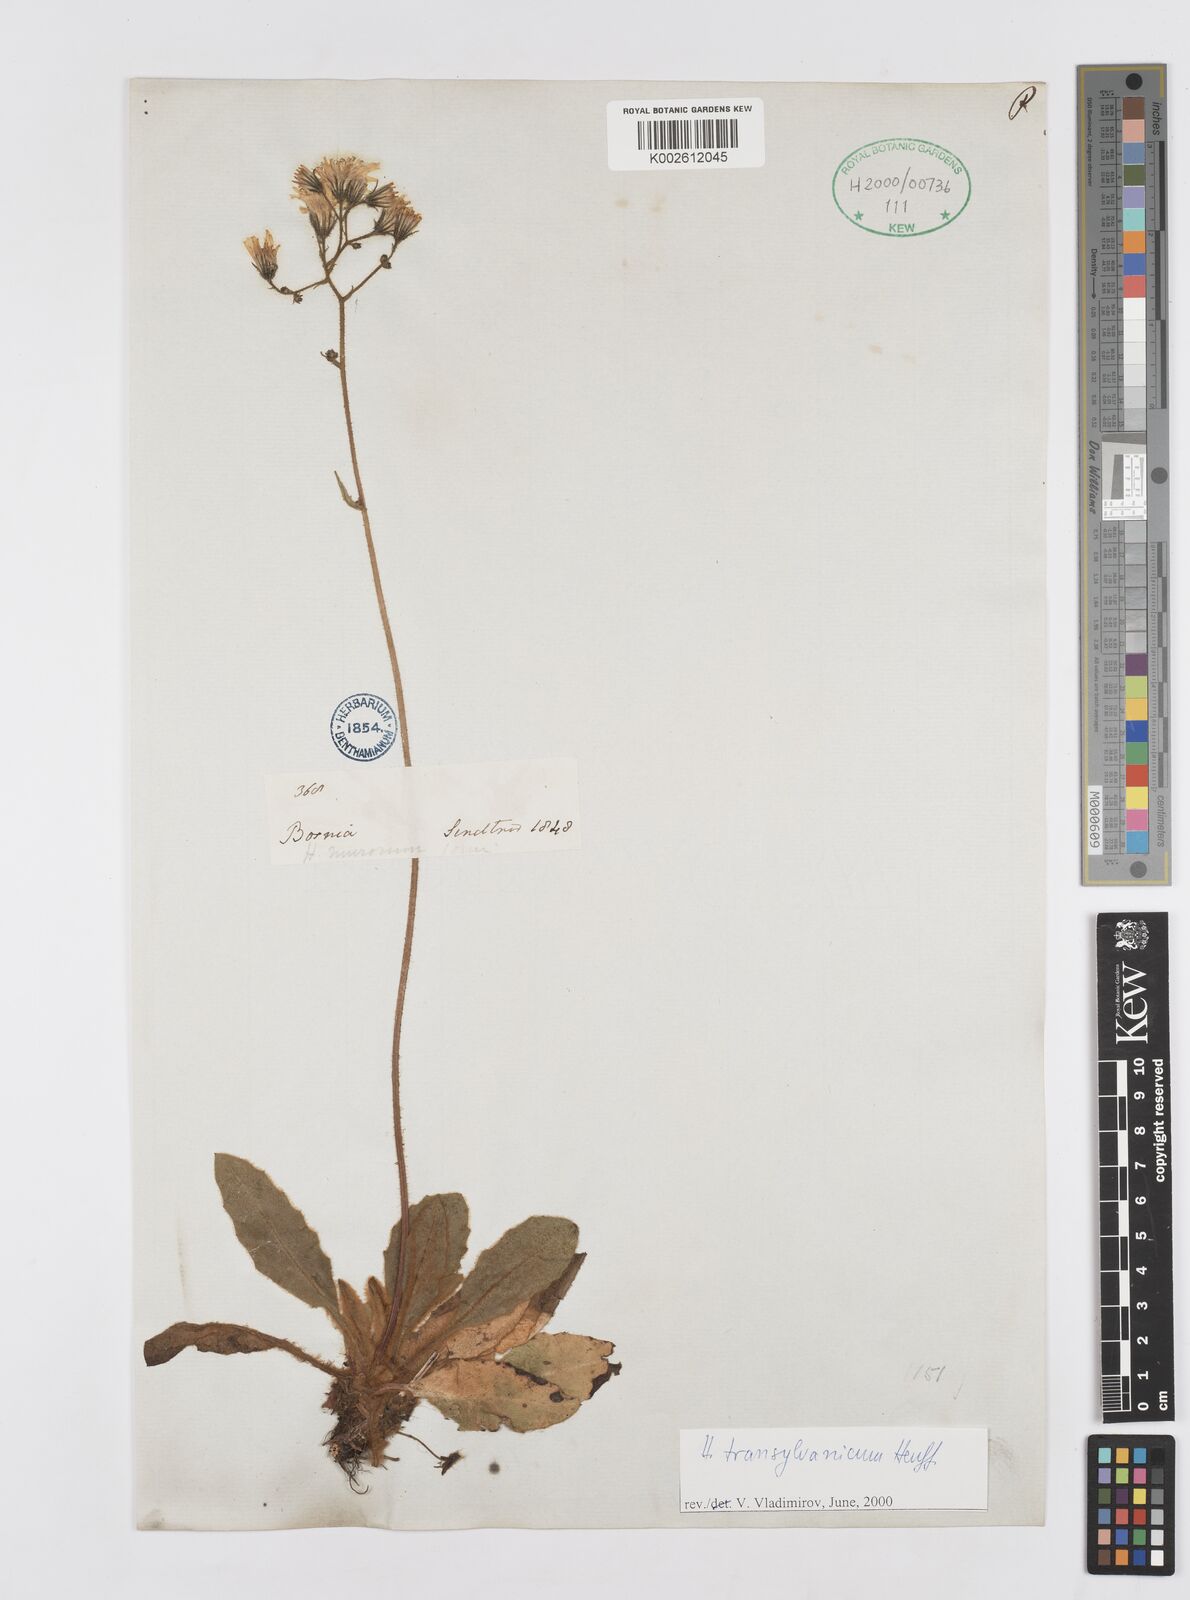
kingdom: Plantae
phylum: Tracheophyta
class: Magnoliopsida
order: Asterales
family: Asteraceae
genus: Hieracium
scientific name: Hieracium transylvanicum
